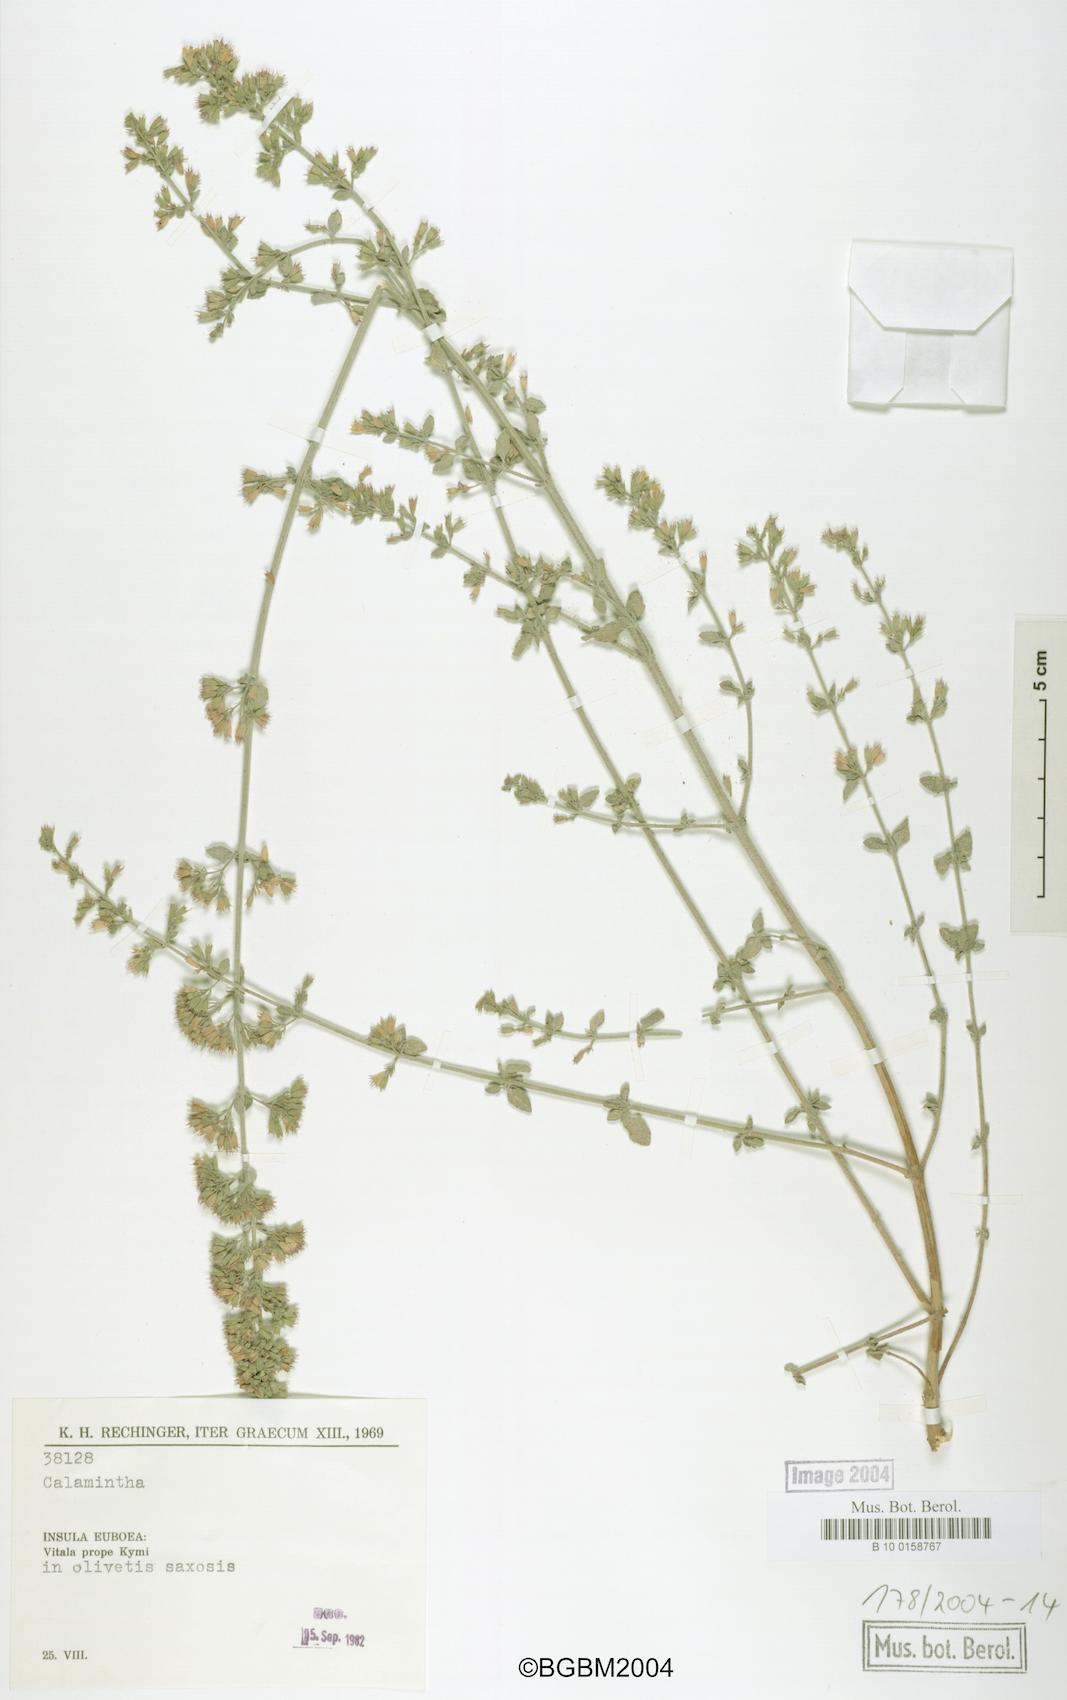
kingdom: Plantae
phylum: Tracheophyta
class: Magnoliopsida
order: Lamiales
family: Lamiaceae
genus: Clinopodium
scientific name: Clinopodium nepeta
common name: Lesser calamint
